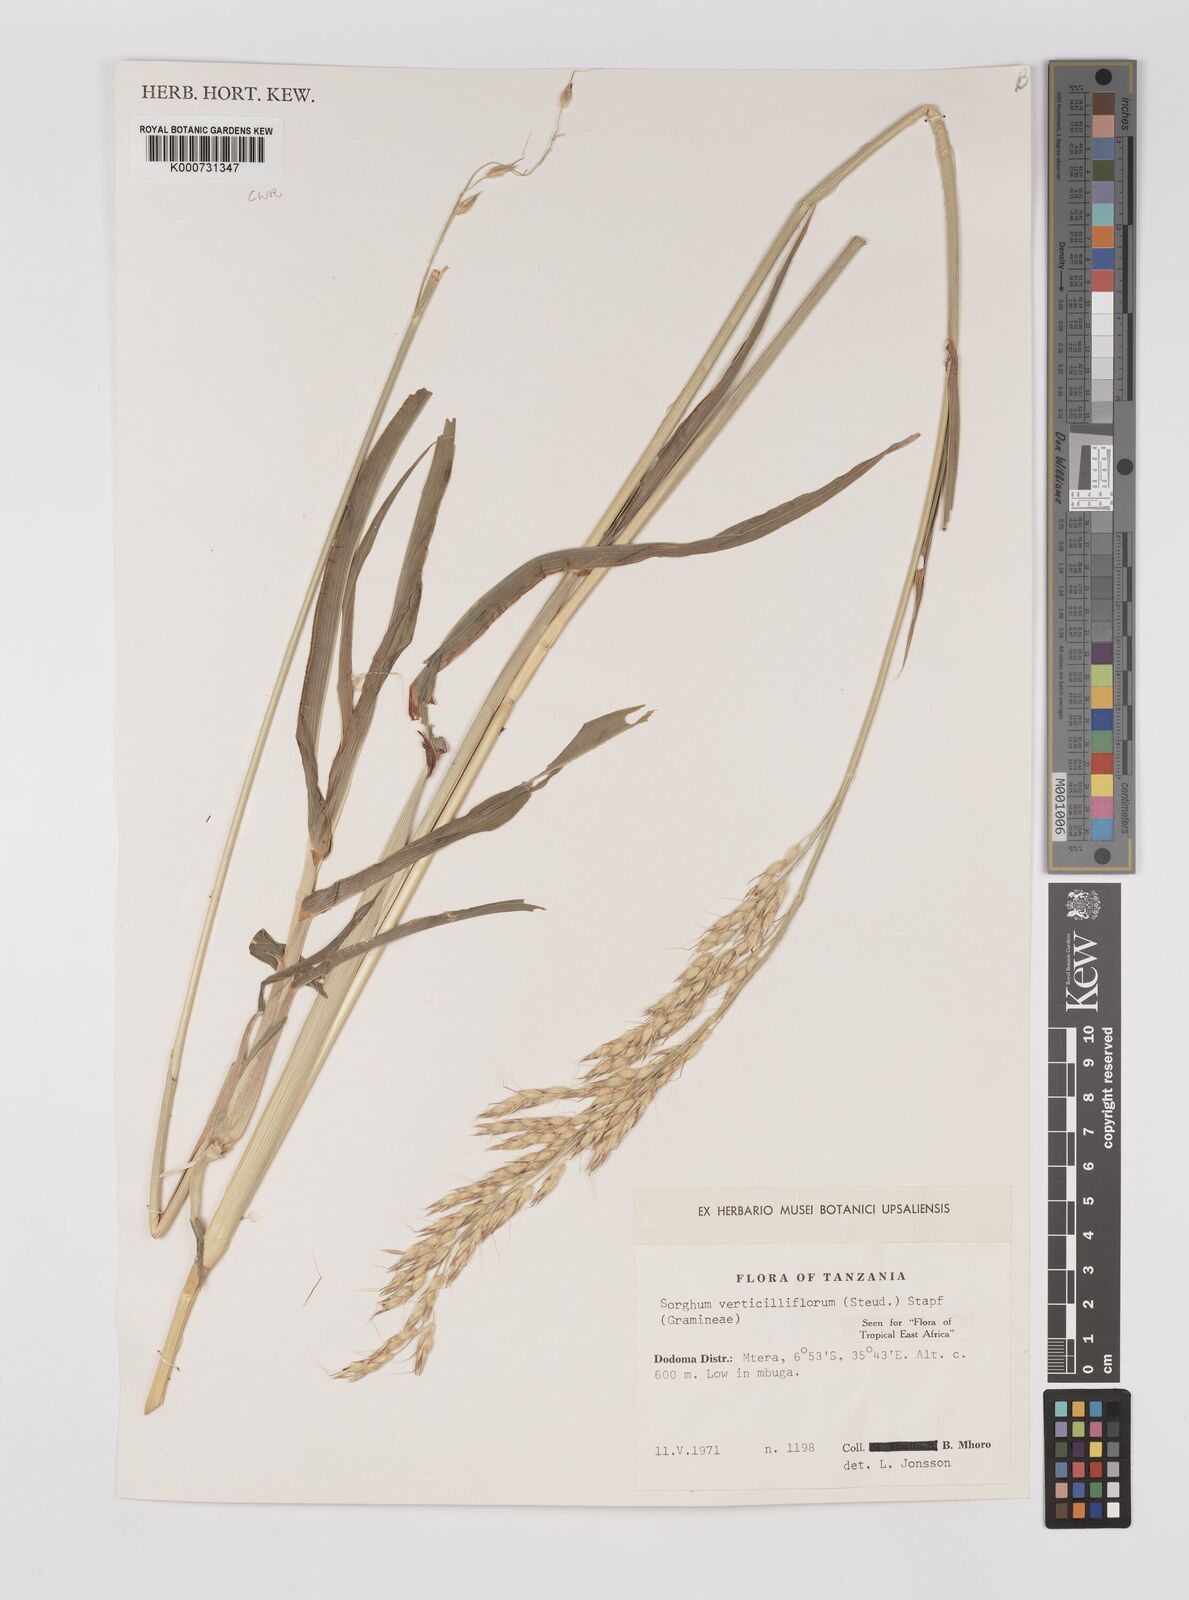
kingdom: Plantae
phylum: Tracheophyta
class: Liliopsida
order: Poales
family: Poaceae
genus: Sorghum
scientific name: Sorghum arundinaceum
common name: Sorghum
